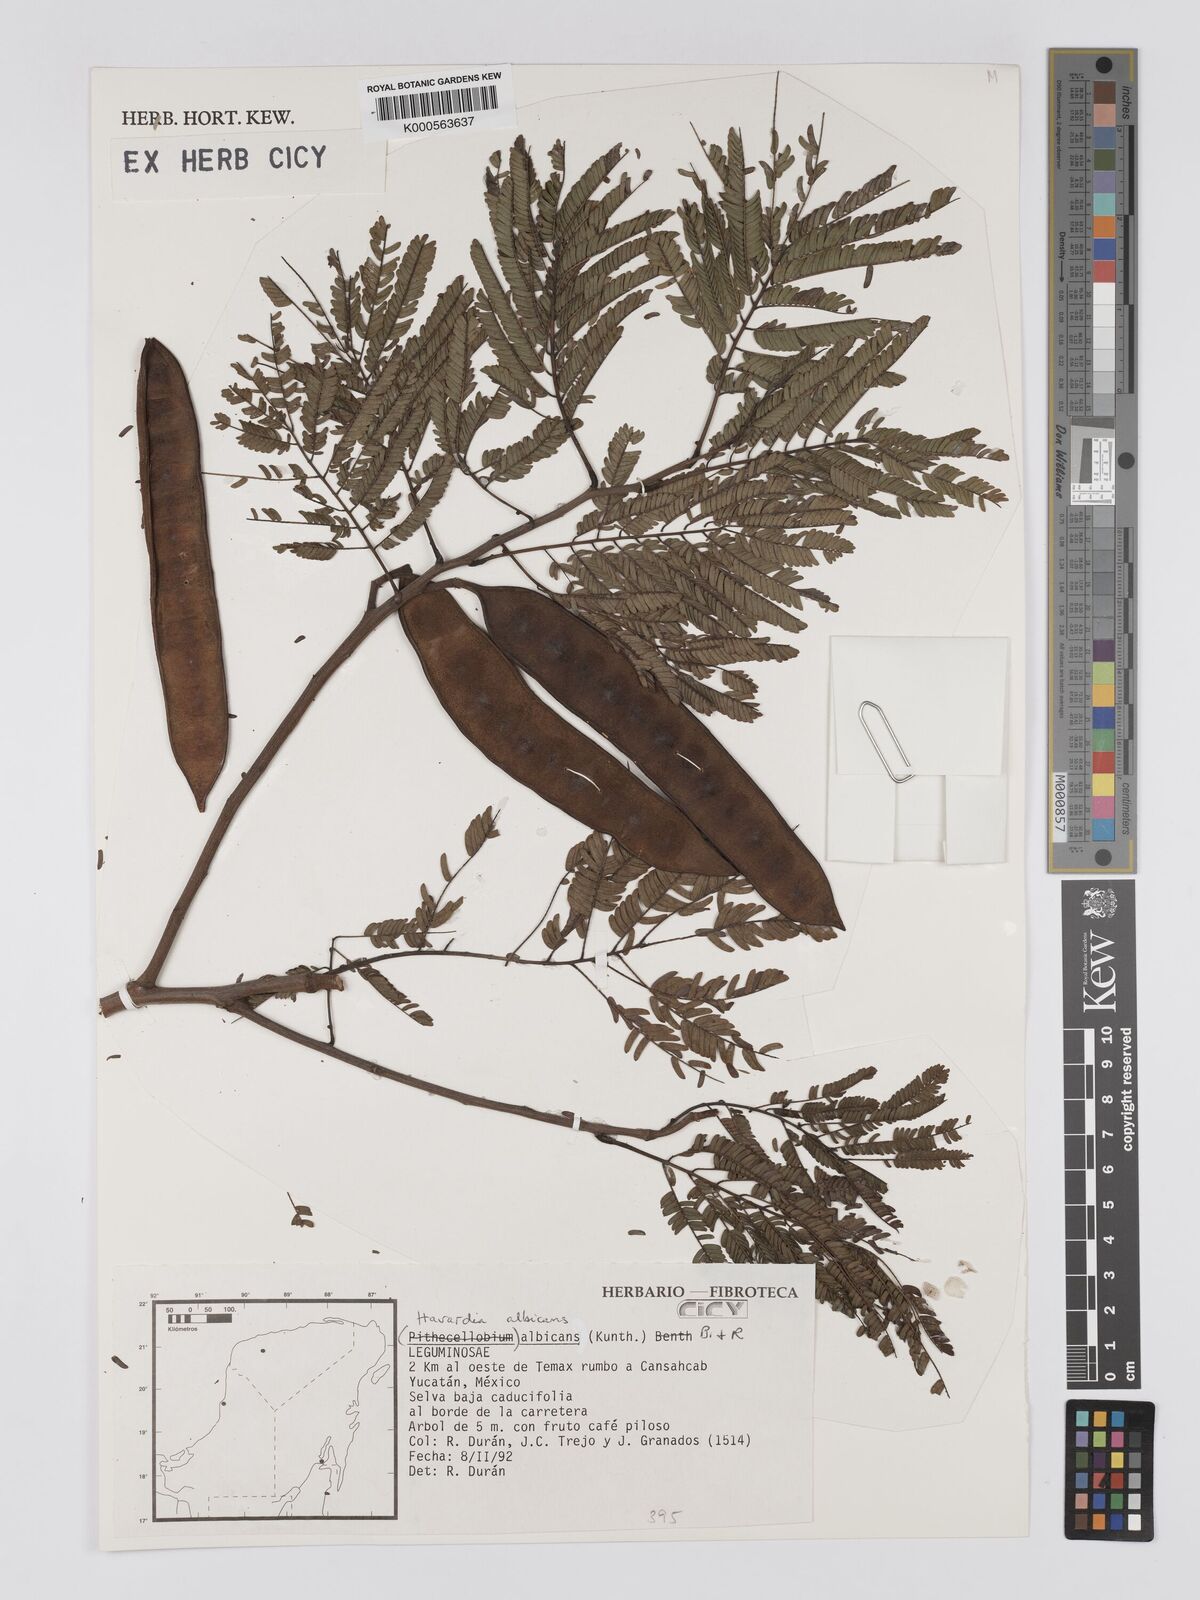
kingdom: Plantae
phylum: Tracheophyta
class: Magnoliopsida
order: Fabales
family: Fabaceae
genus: Havardia
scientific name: Havardia albicans
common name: Huisache
